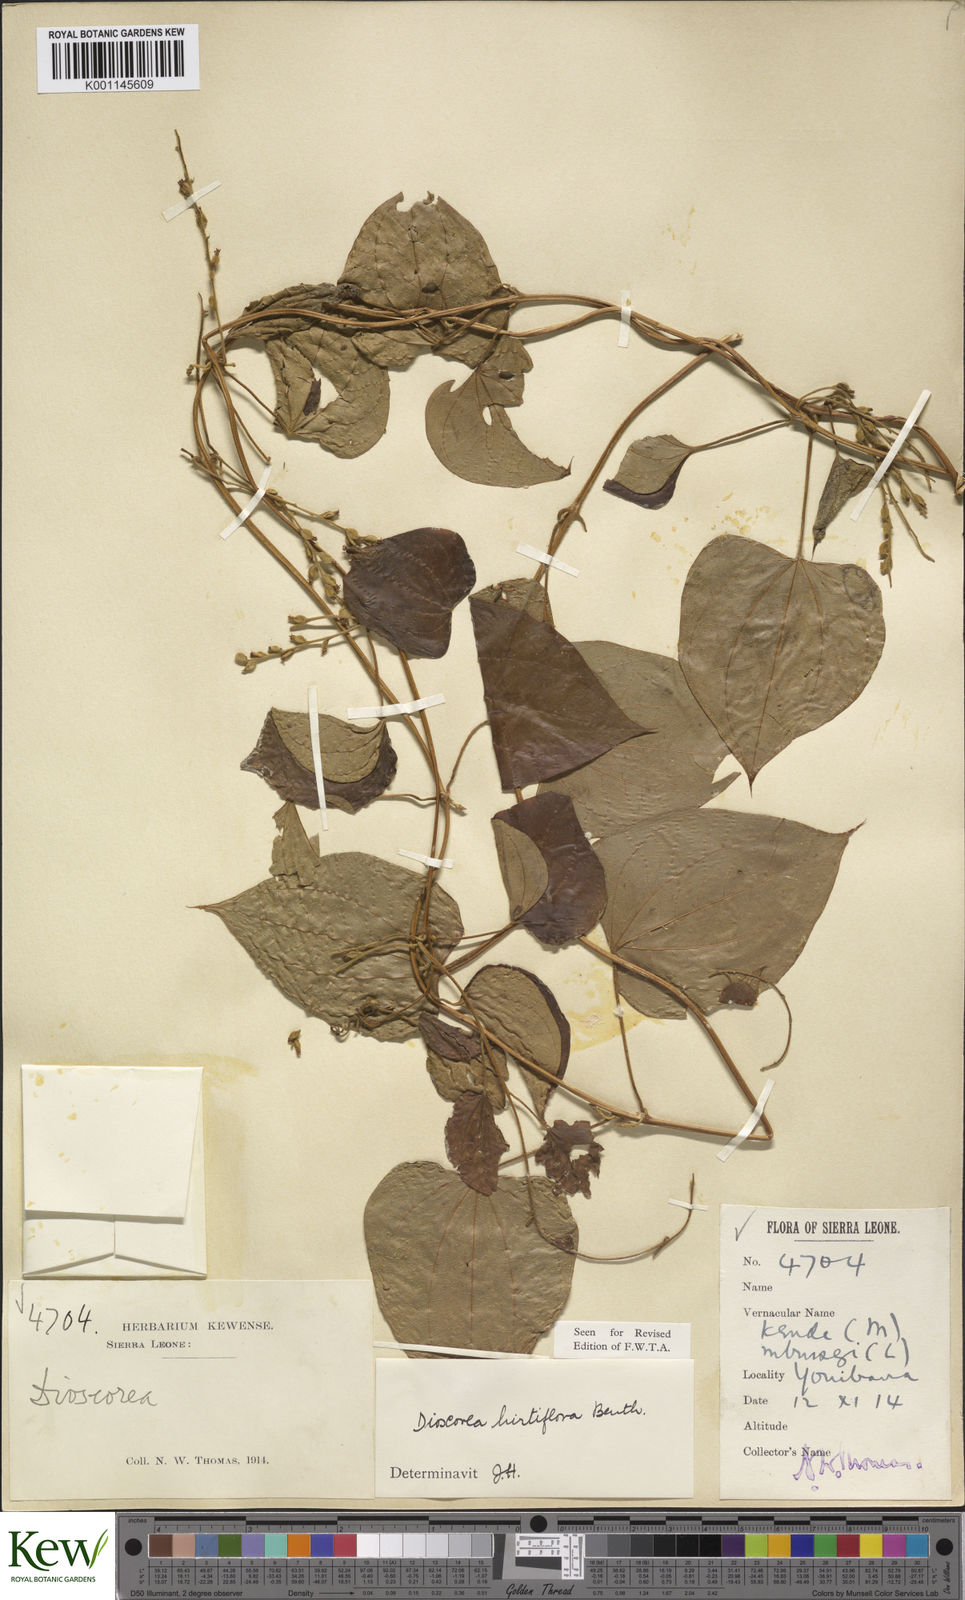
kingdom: Plantae
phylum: Tracheophyta
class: Liliopsida
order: Dioscoreales
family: Dioscoreaceae
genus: Dioscorea
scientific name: Dioscorea hirtiflora
